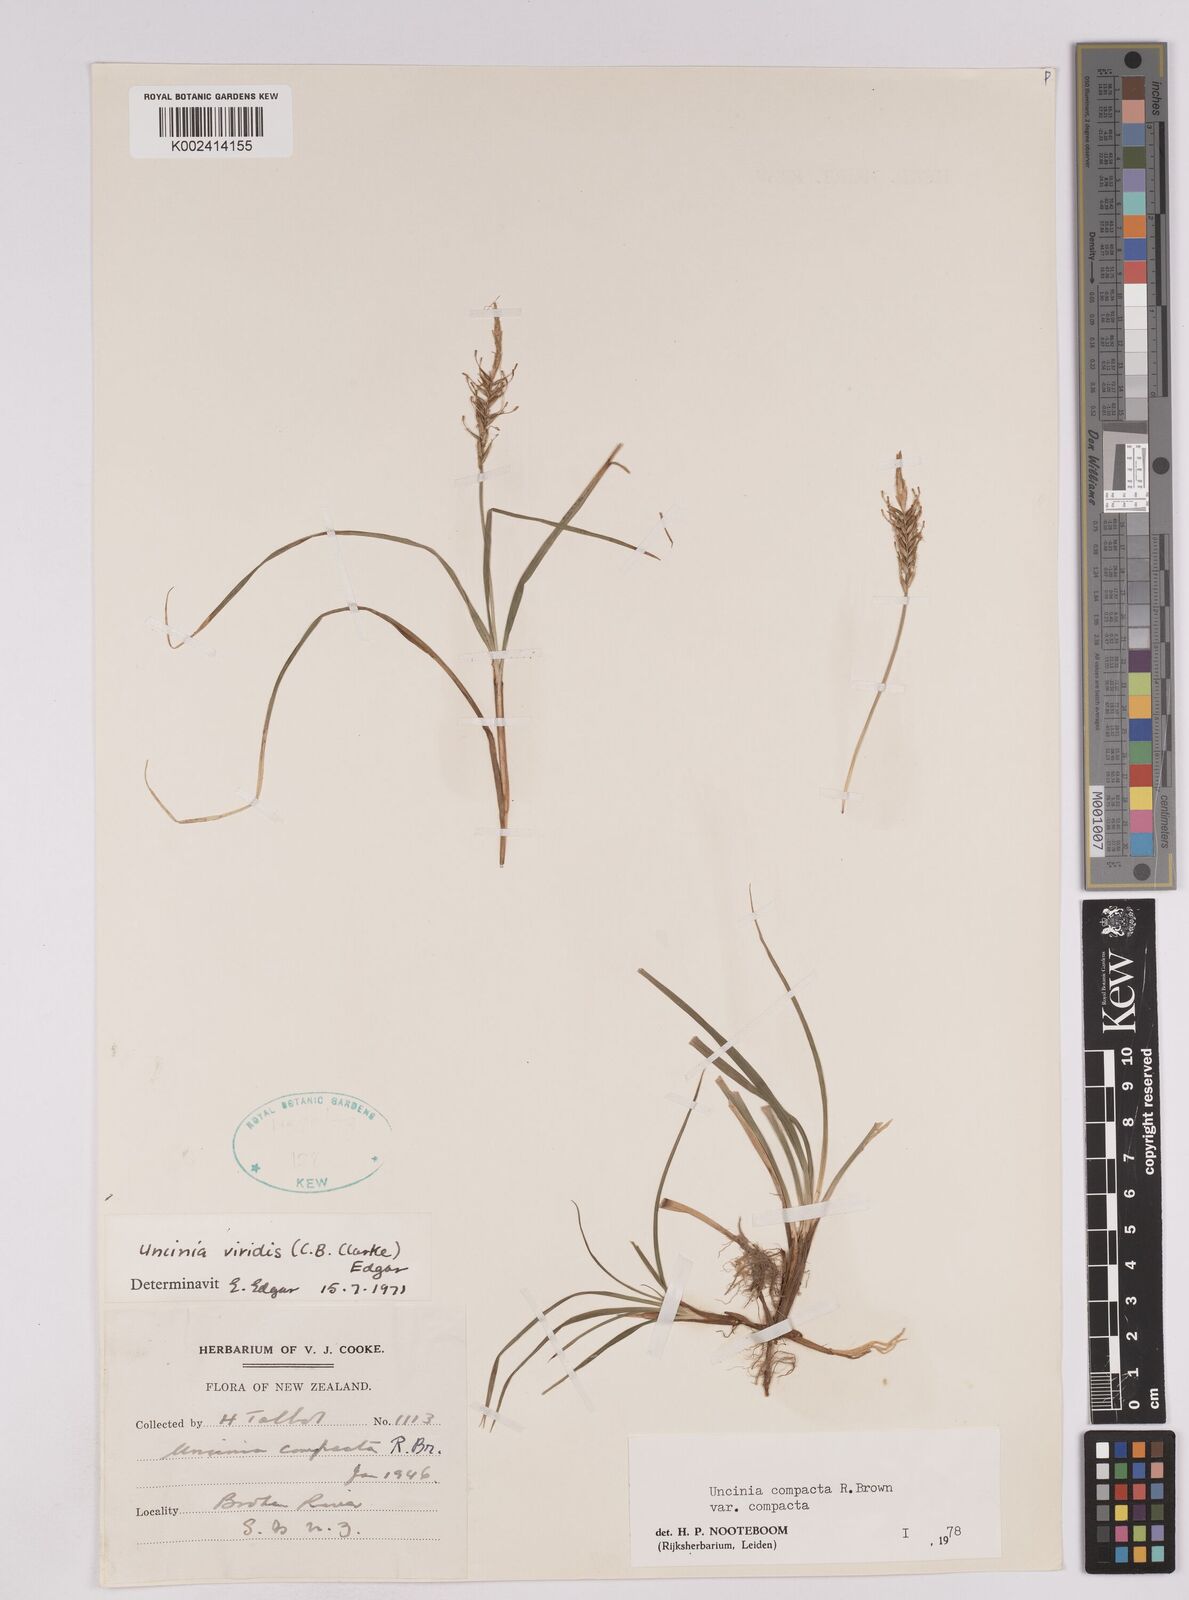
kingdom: Plantae
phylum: Tracheophyta
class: Liliopsida
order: Poales
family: Cyperaceae
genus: Carex
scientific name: Carex austrocompacta
